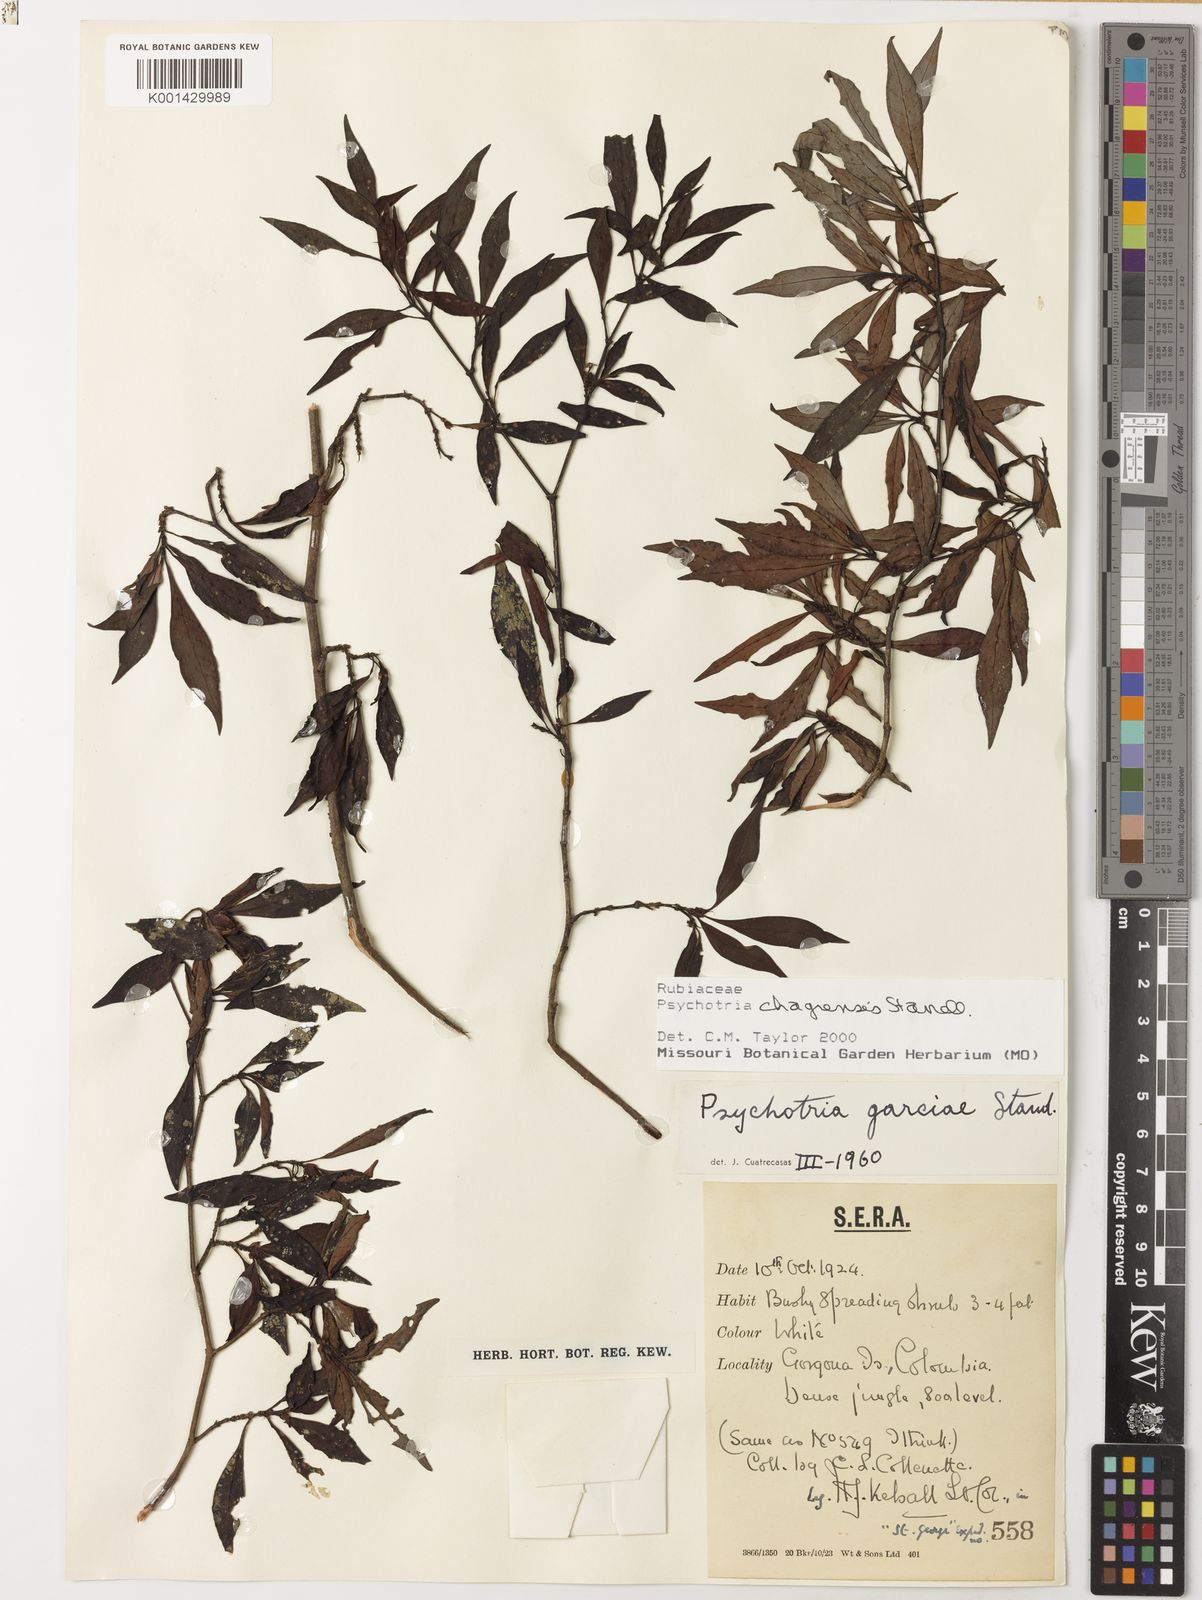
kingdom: Plantae
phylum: Tracheophyta
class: Magnoliopsida
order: Gentianales
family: Rubiaceae
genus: Psychotria
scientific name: Psychotria chagrensis
